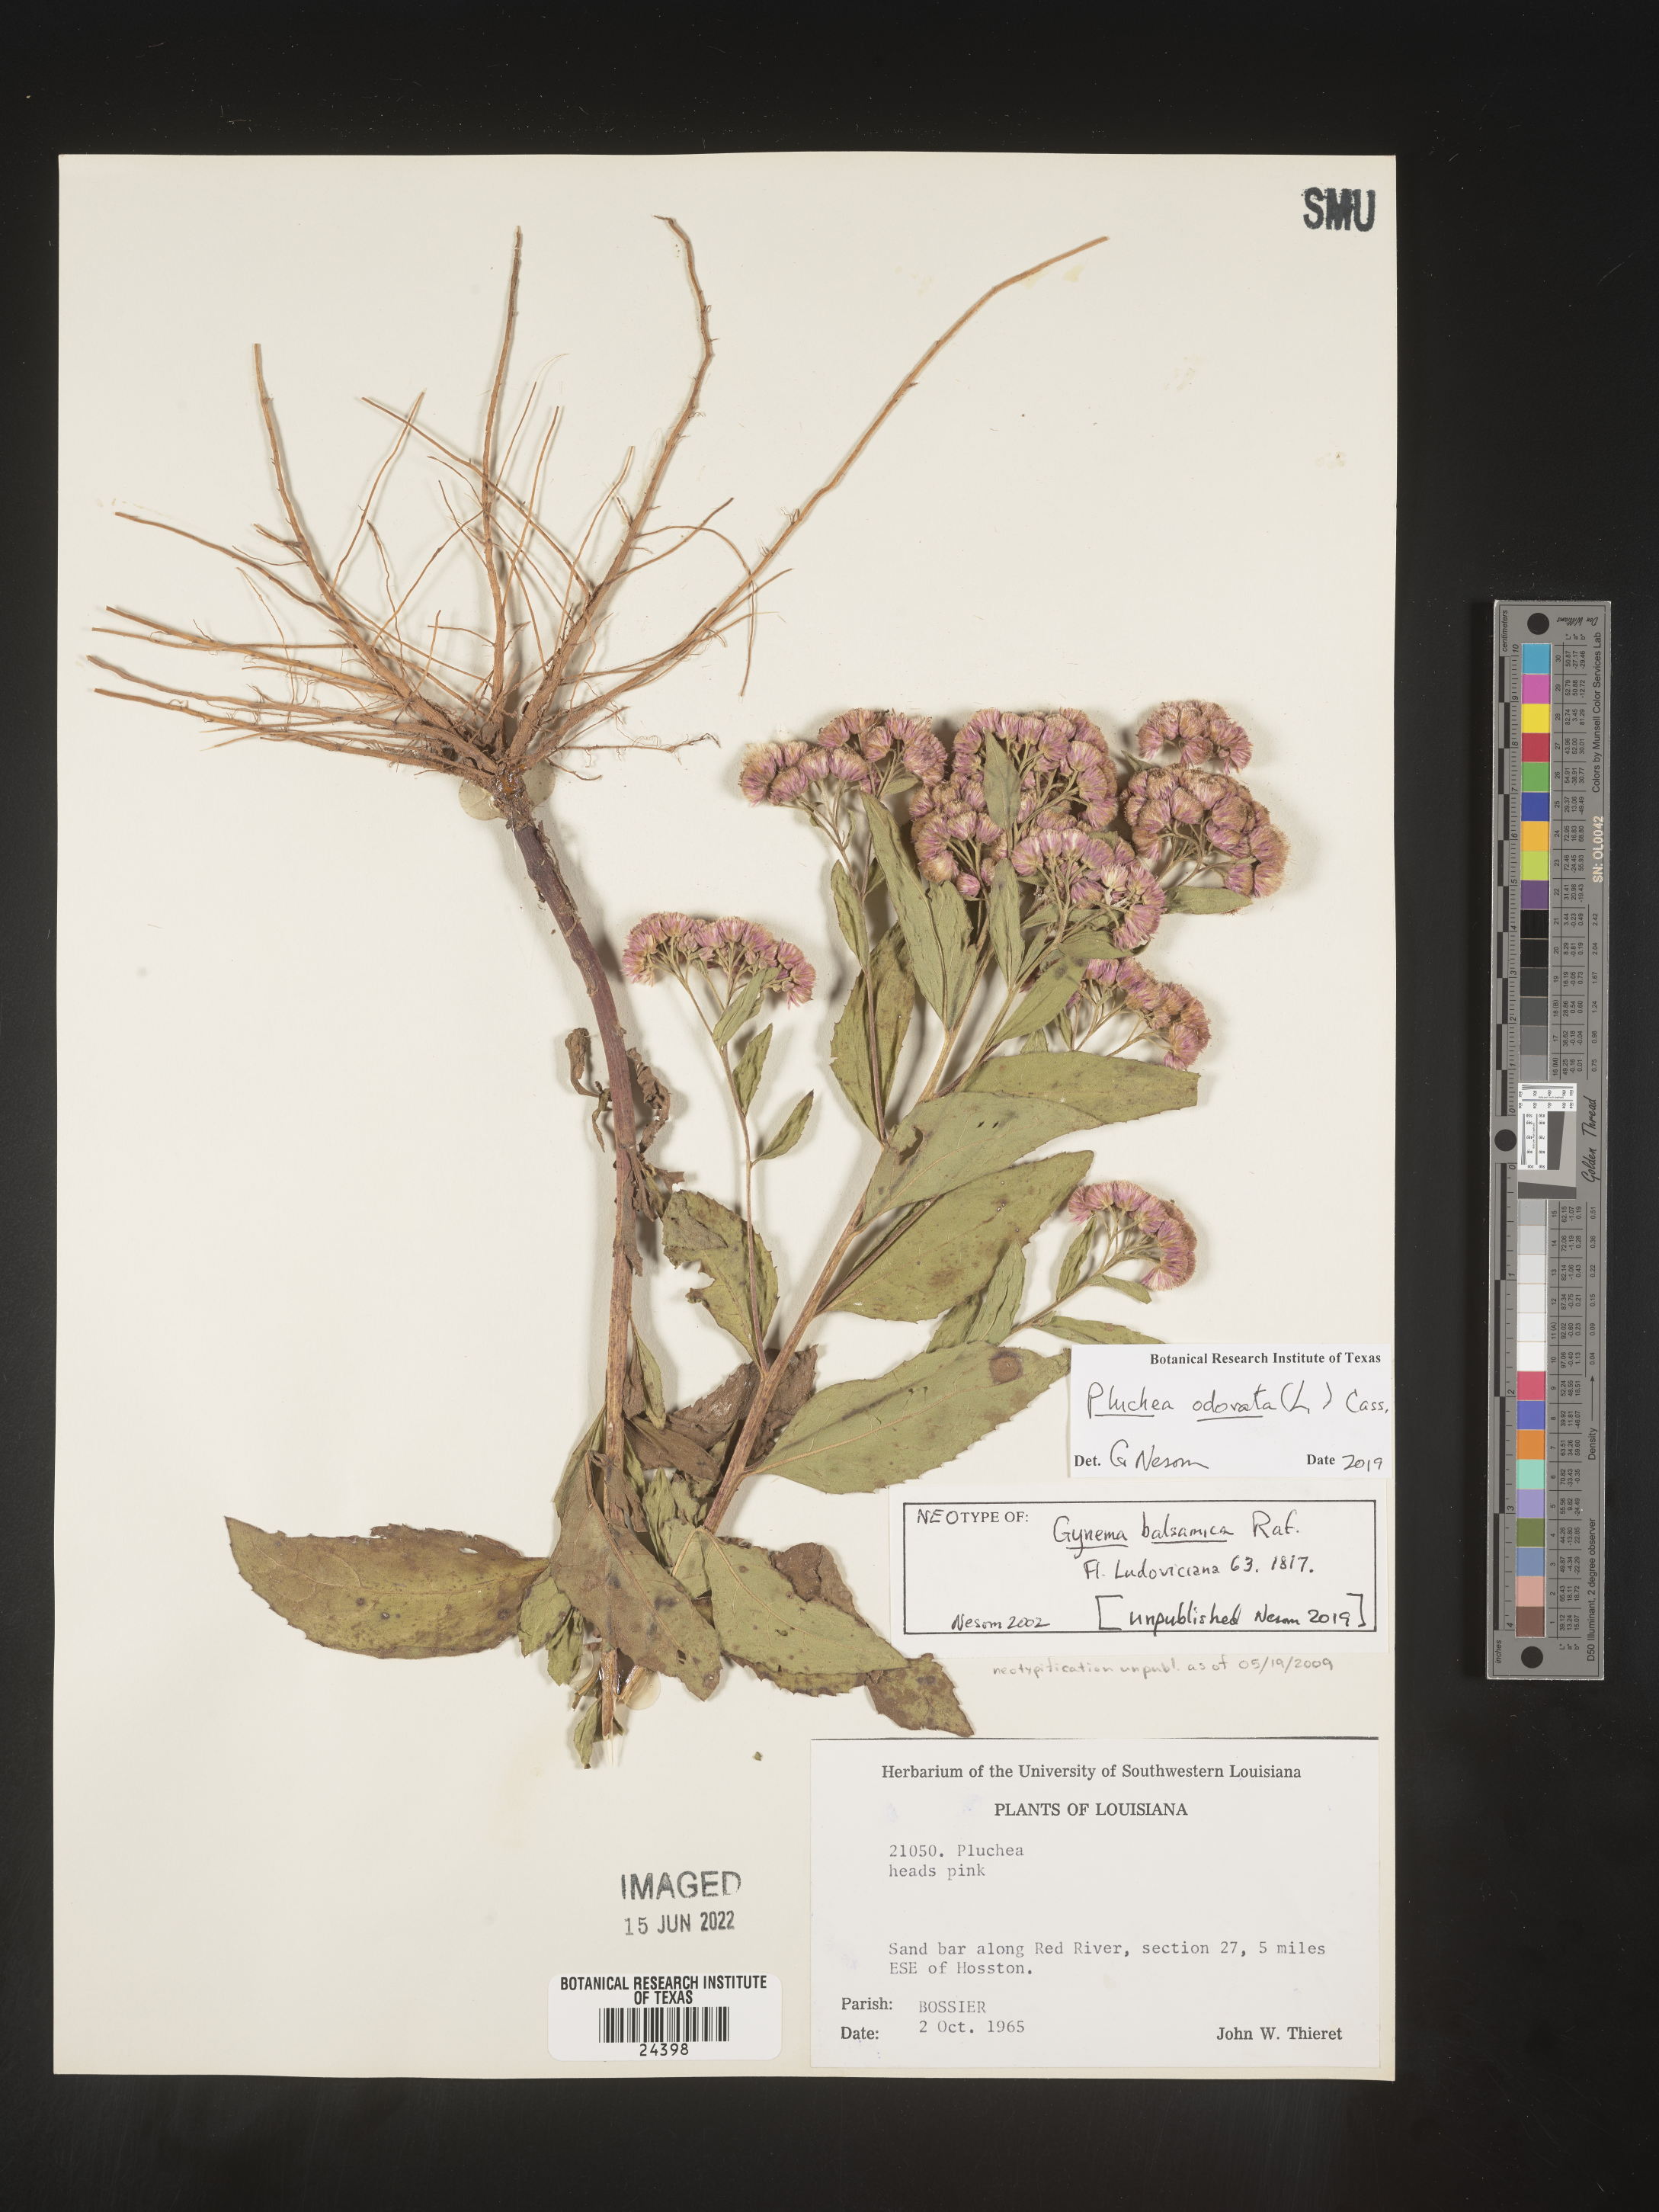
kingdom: Plantae
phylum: Tracheophyta
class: Magnoliopsida
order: Asterales
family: Asteraceae
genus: Pluchea
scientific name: Pluchea odorata
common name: Saltmarsh fleabane
